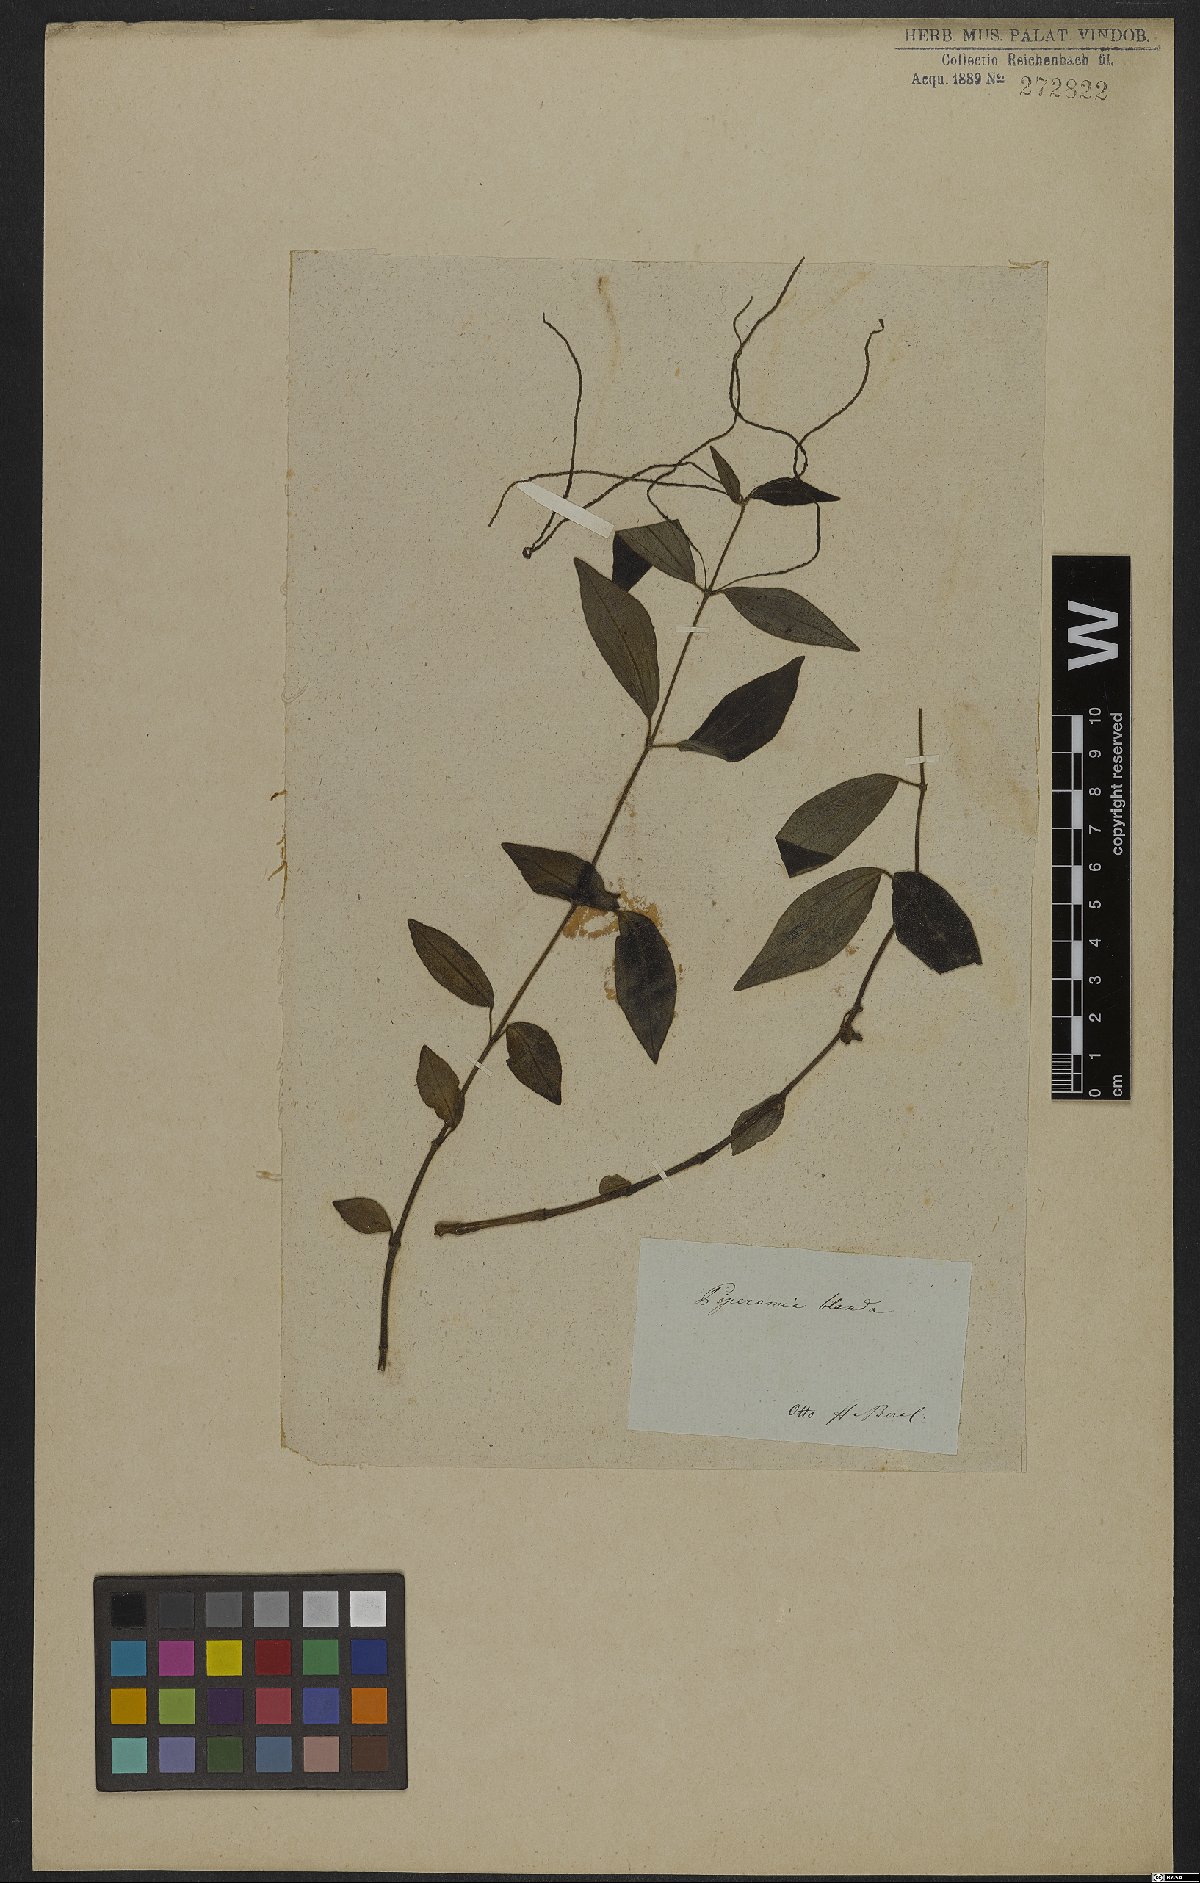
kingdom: Plantae
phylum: Tracheophyta
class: Magnoliopsida
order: Piperales
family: Piperaceae
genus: Peperomia
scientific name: Peperomia blanda
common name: Arid-land peperomia
